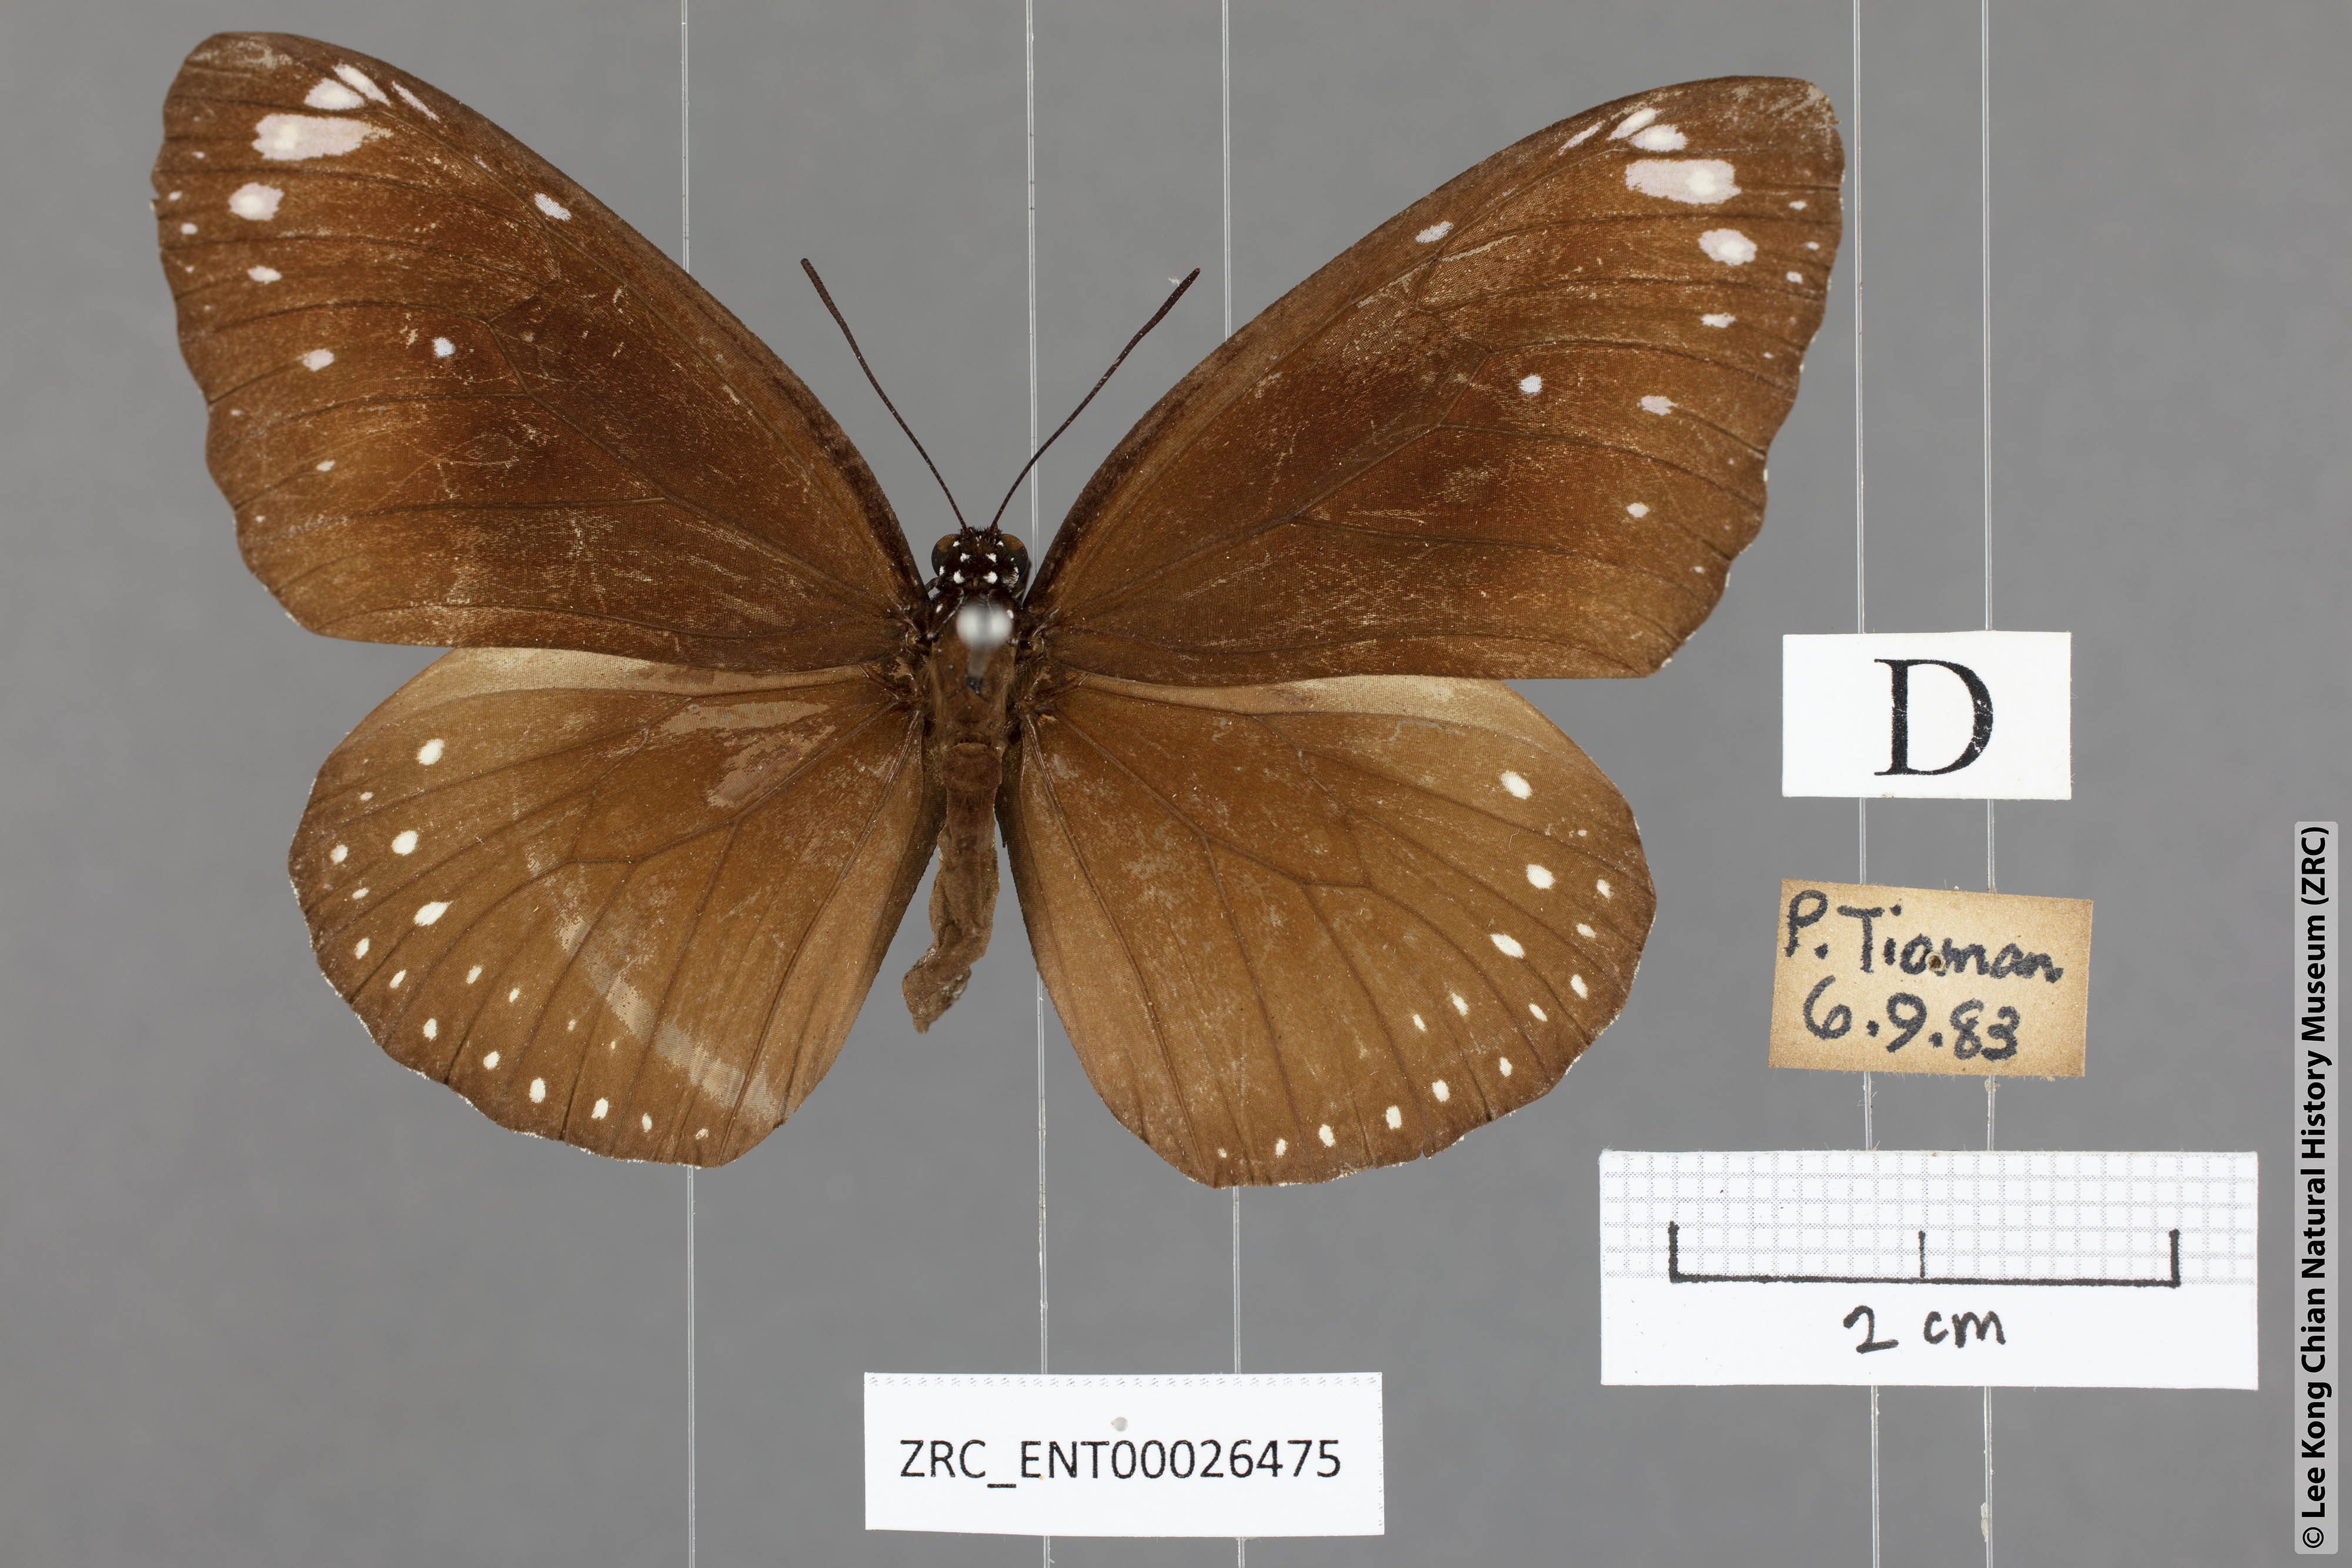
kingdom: Animalia
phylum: Arthropoda
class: Insecta
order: Lepidoptera
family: Nymphalidae
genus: Euploea
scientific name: Euploea modesta
